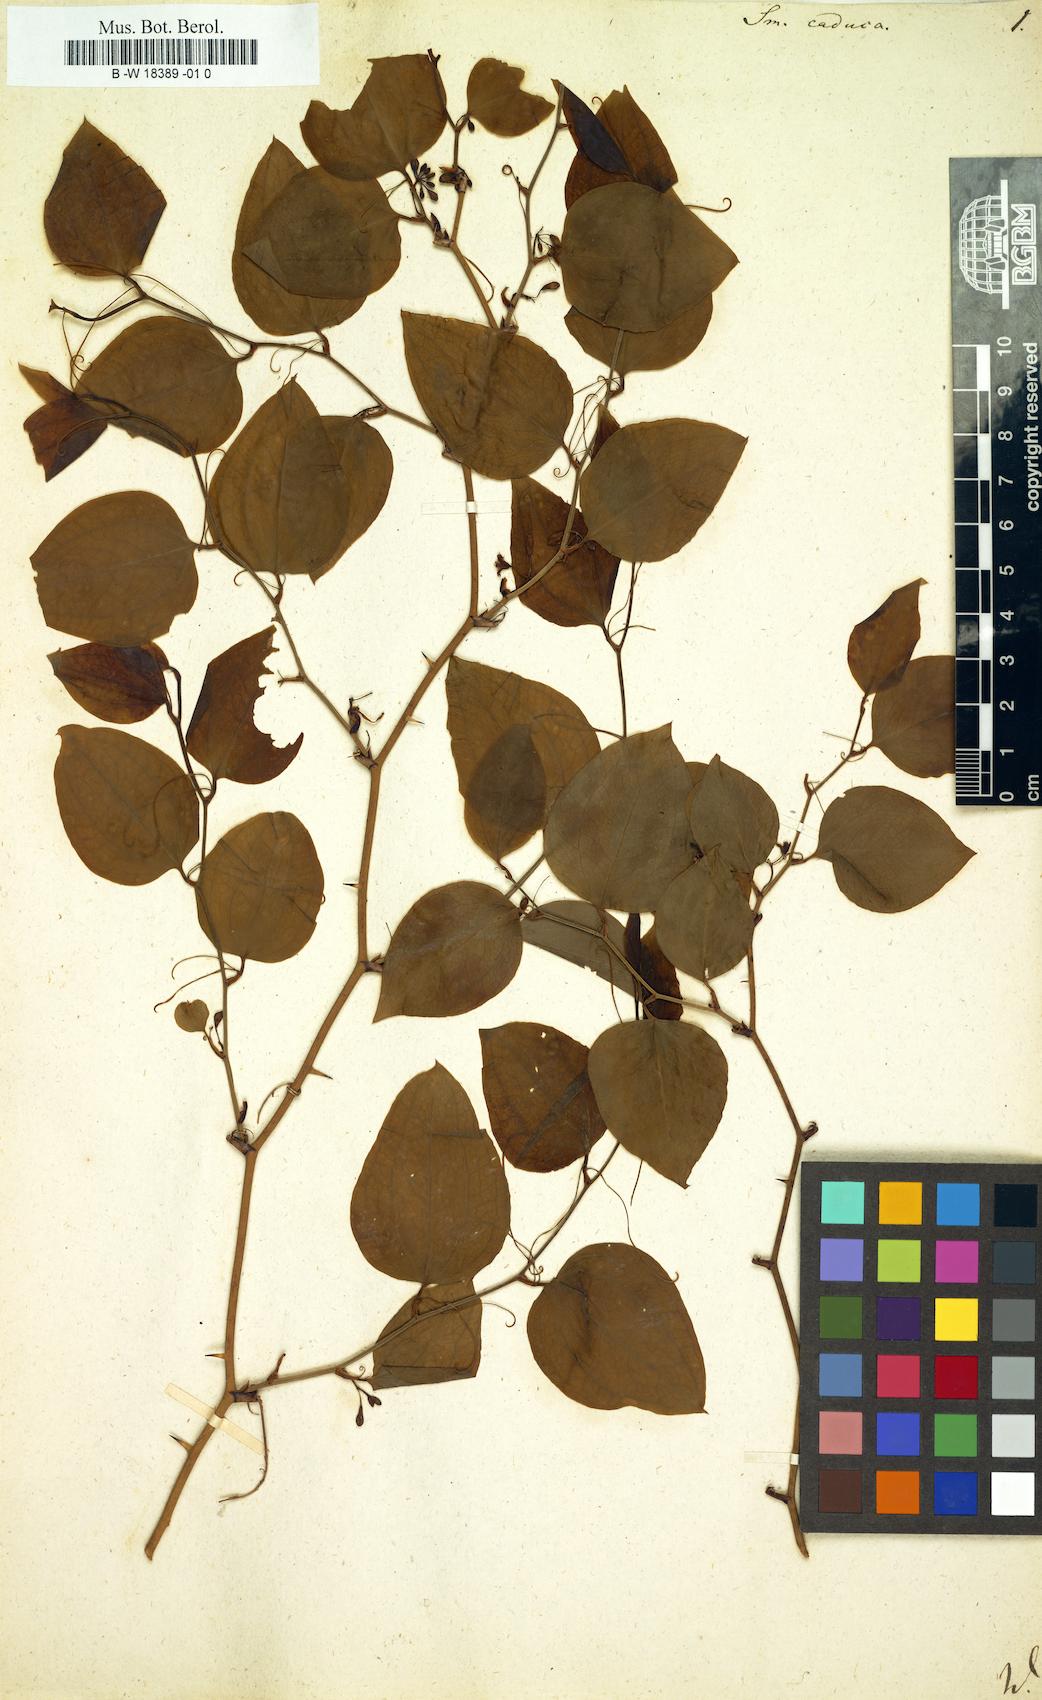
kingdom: Plantae
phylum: Tracheophyta
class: Liliopsida
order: Liliales
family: Smilacaceae
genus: Smilax
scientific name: Smilax caduca
